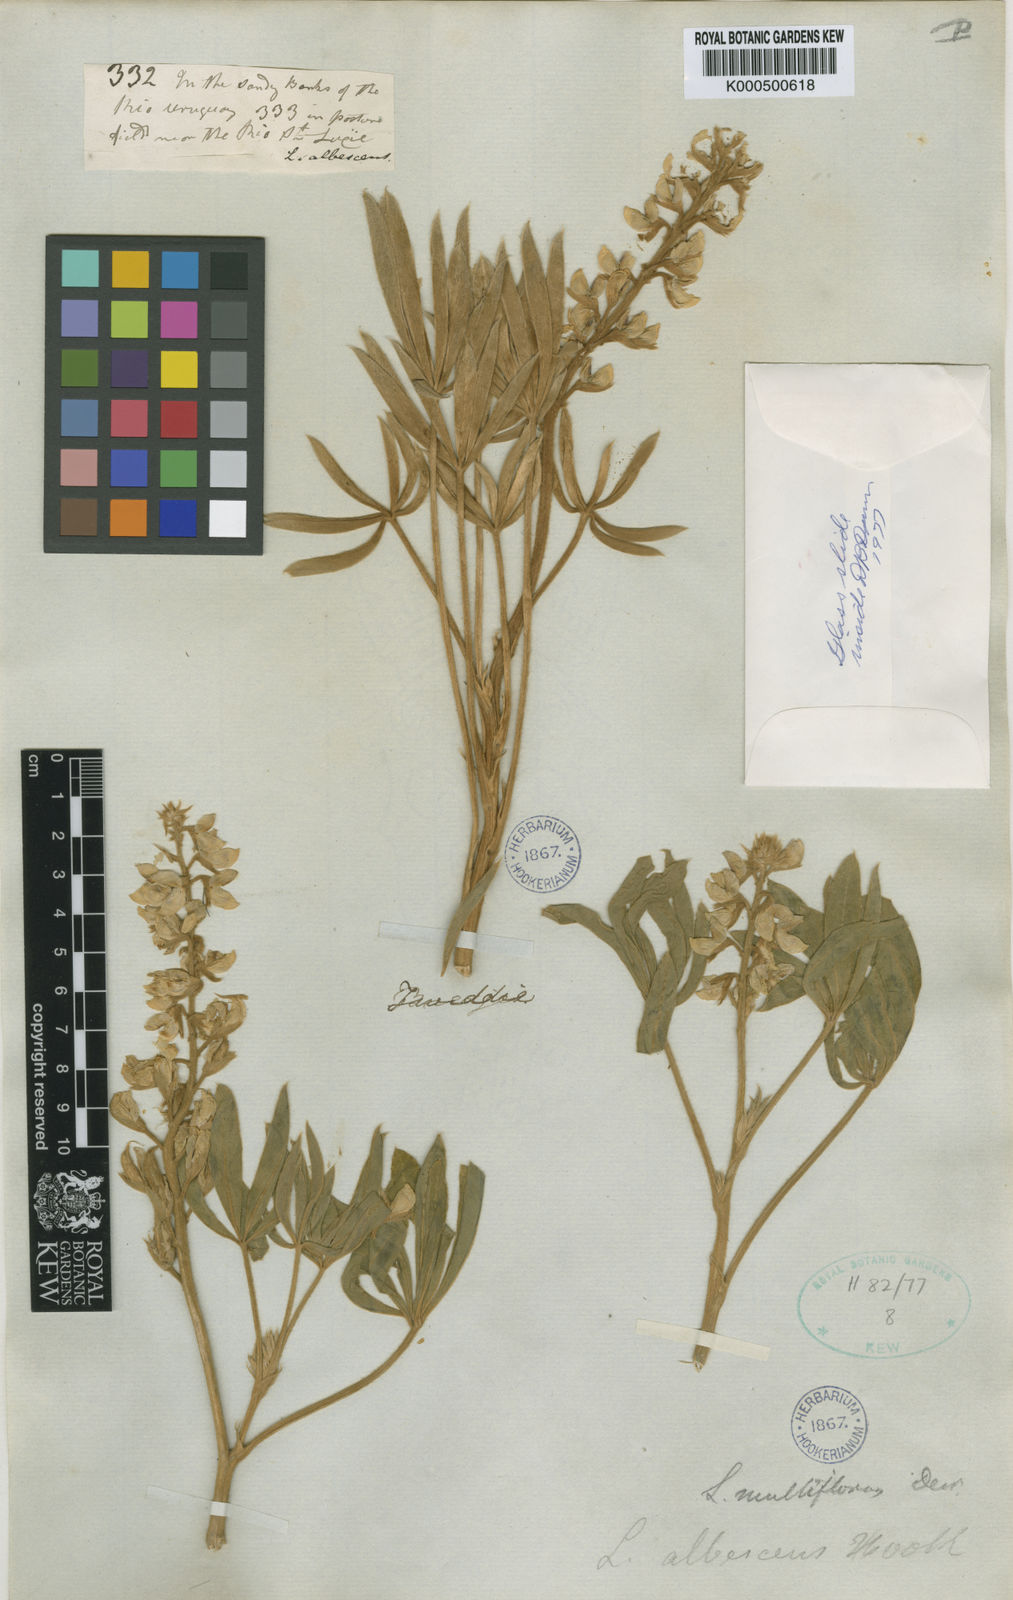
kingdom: Plantae
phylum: Tracheophyta
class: Magnoliopsida
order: Fabales
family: Fabaceae
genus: Lupinus
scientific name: Lupinus multiflorus
